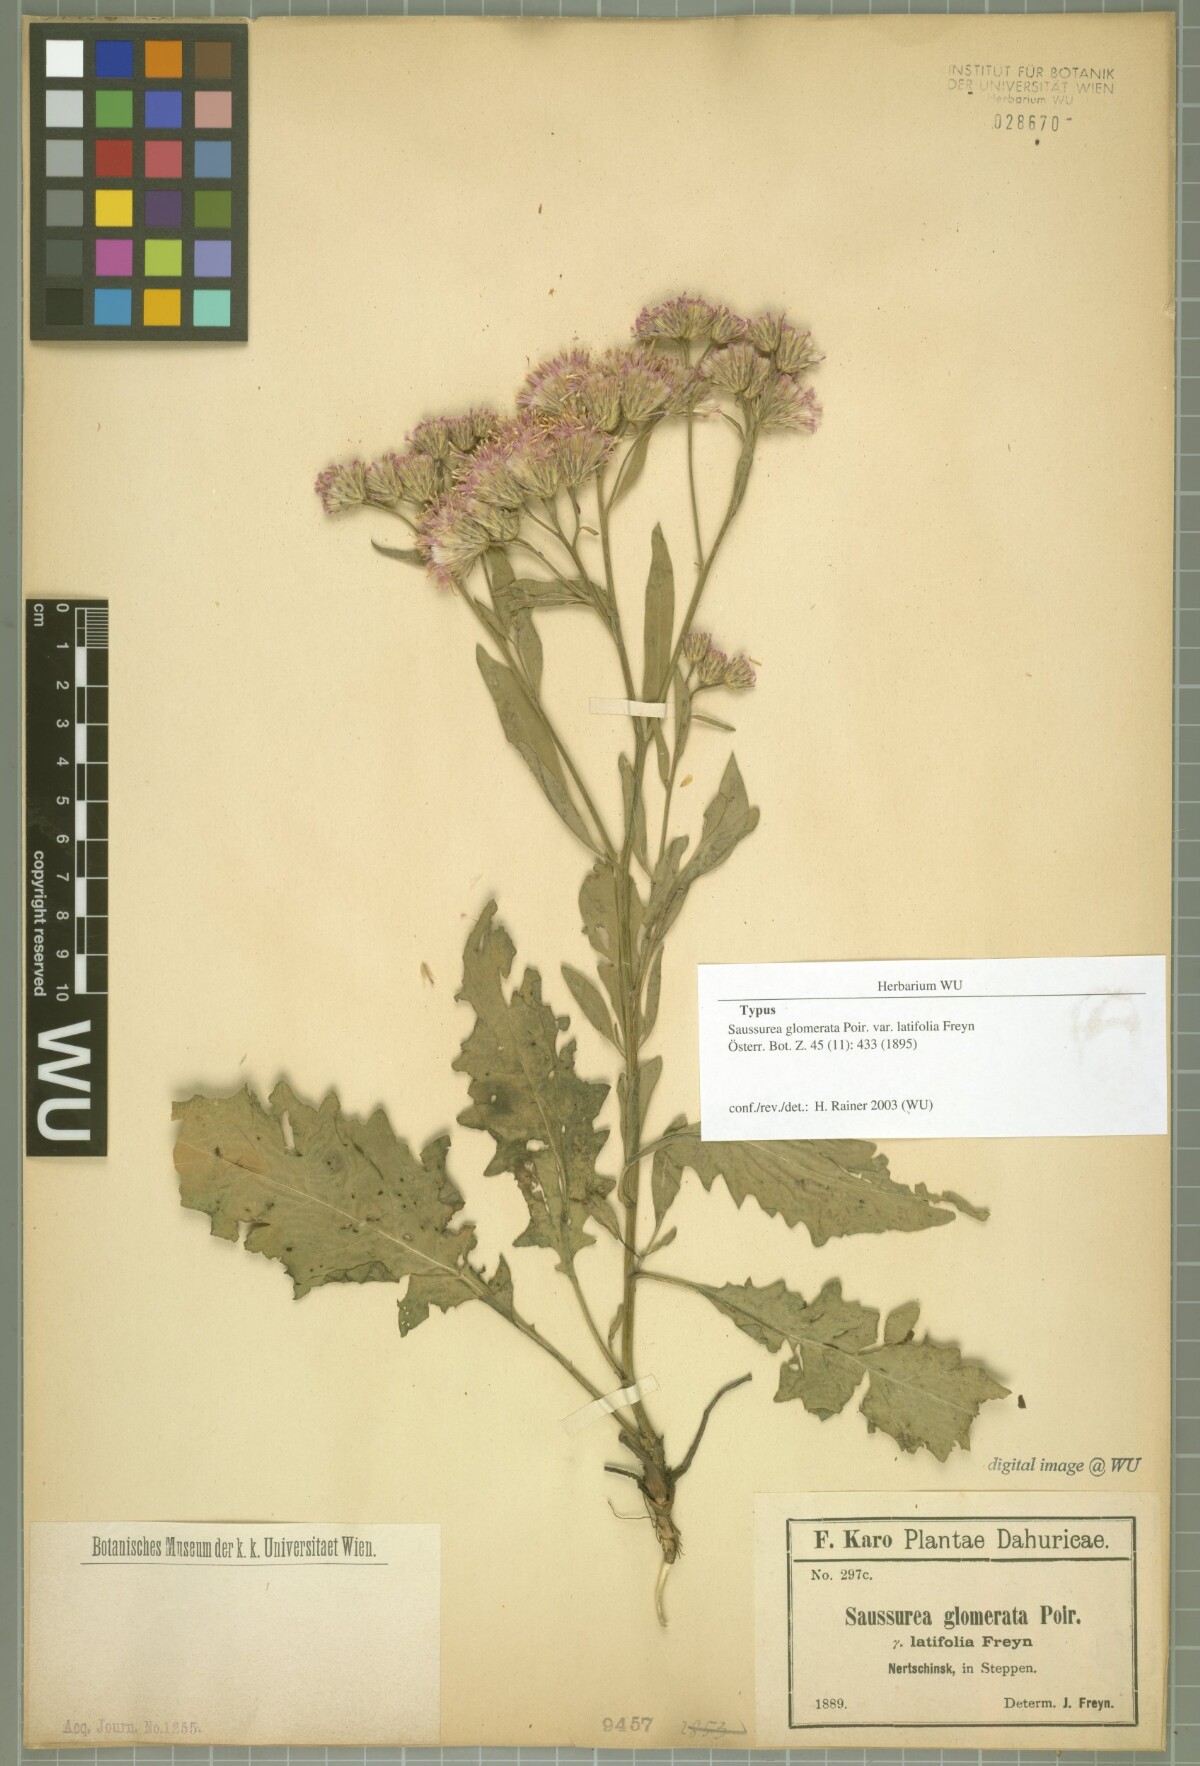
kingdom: Plantae
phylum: Tracheophyta
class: Magnoliopsida
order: Asterales
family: Asteraceae
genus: Saussurea
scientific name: Saussurea amara
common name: Alberta sawwort
